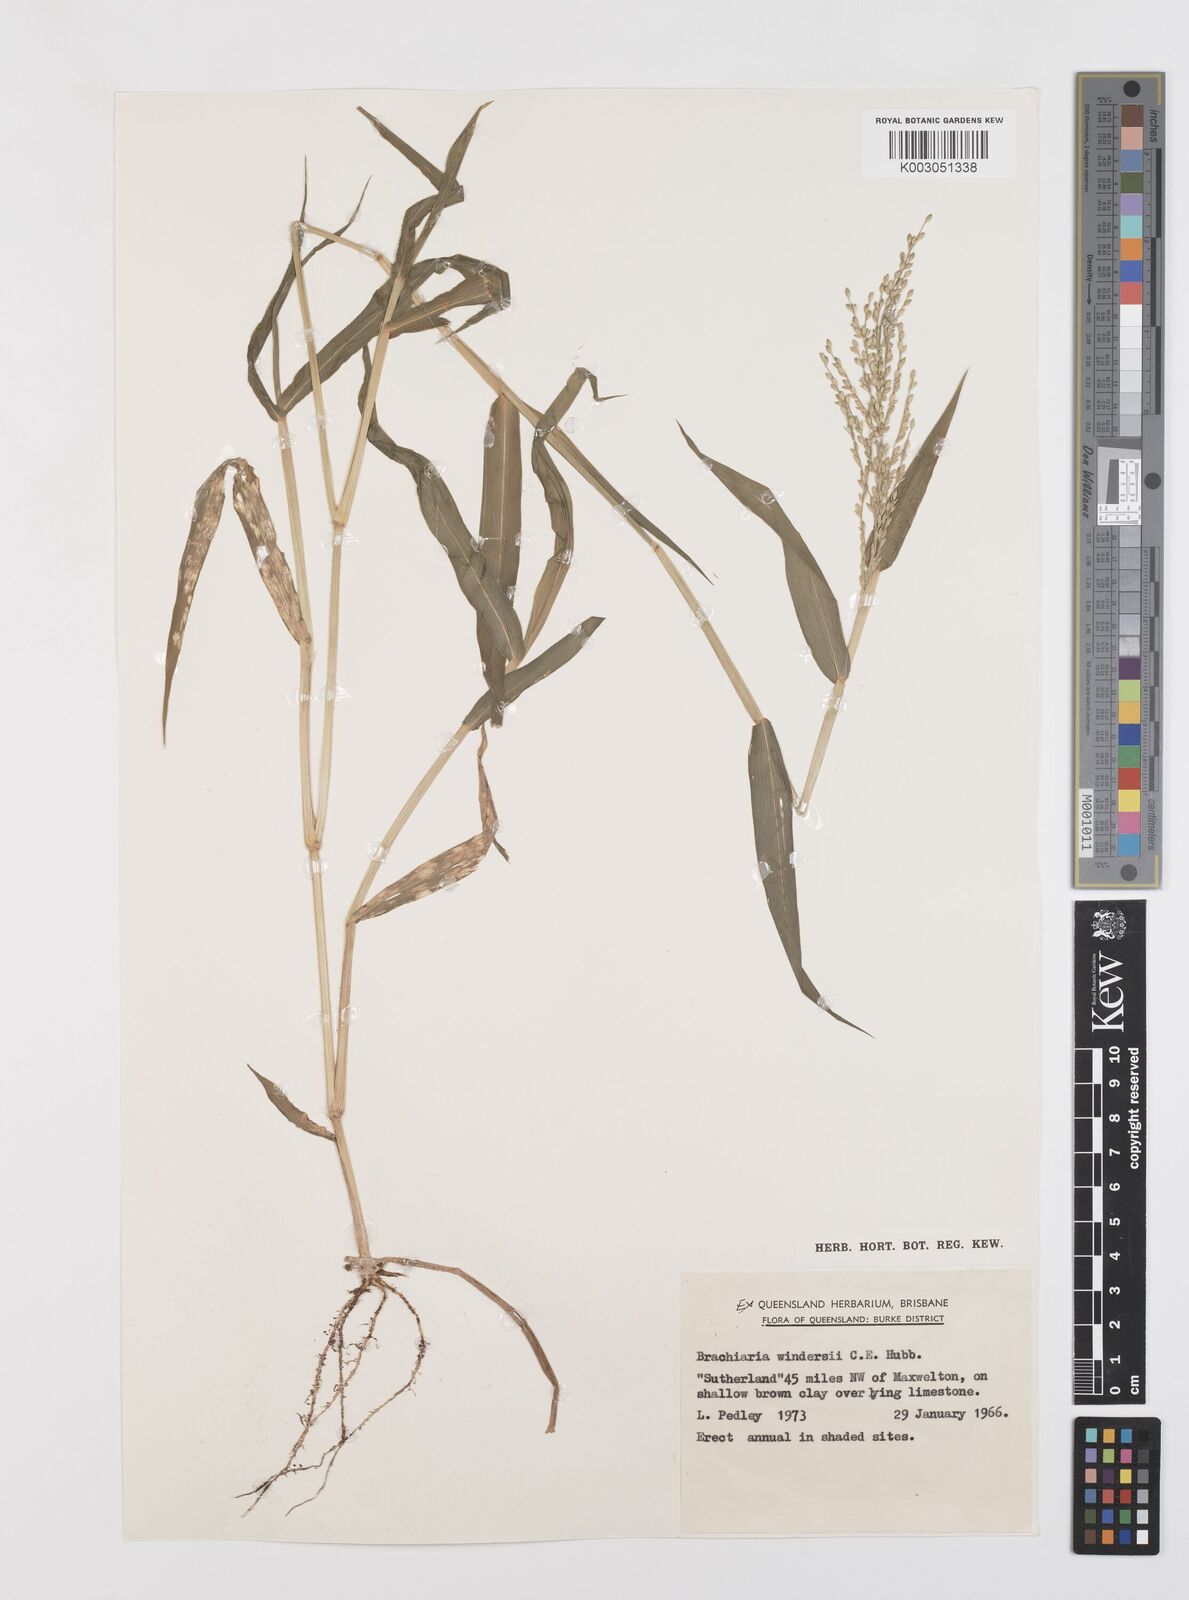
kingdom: Plantae
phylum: Tracheophyta
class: Liliopsida
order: Poales
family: Poaceae
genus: Urochloa
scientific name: Urochloa whiteana
